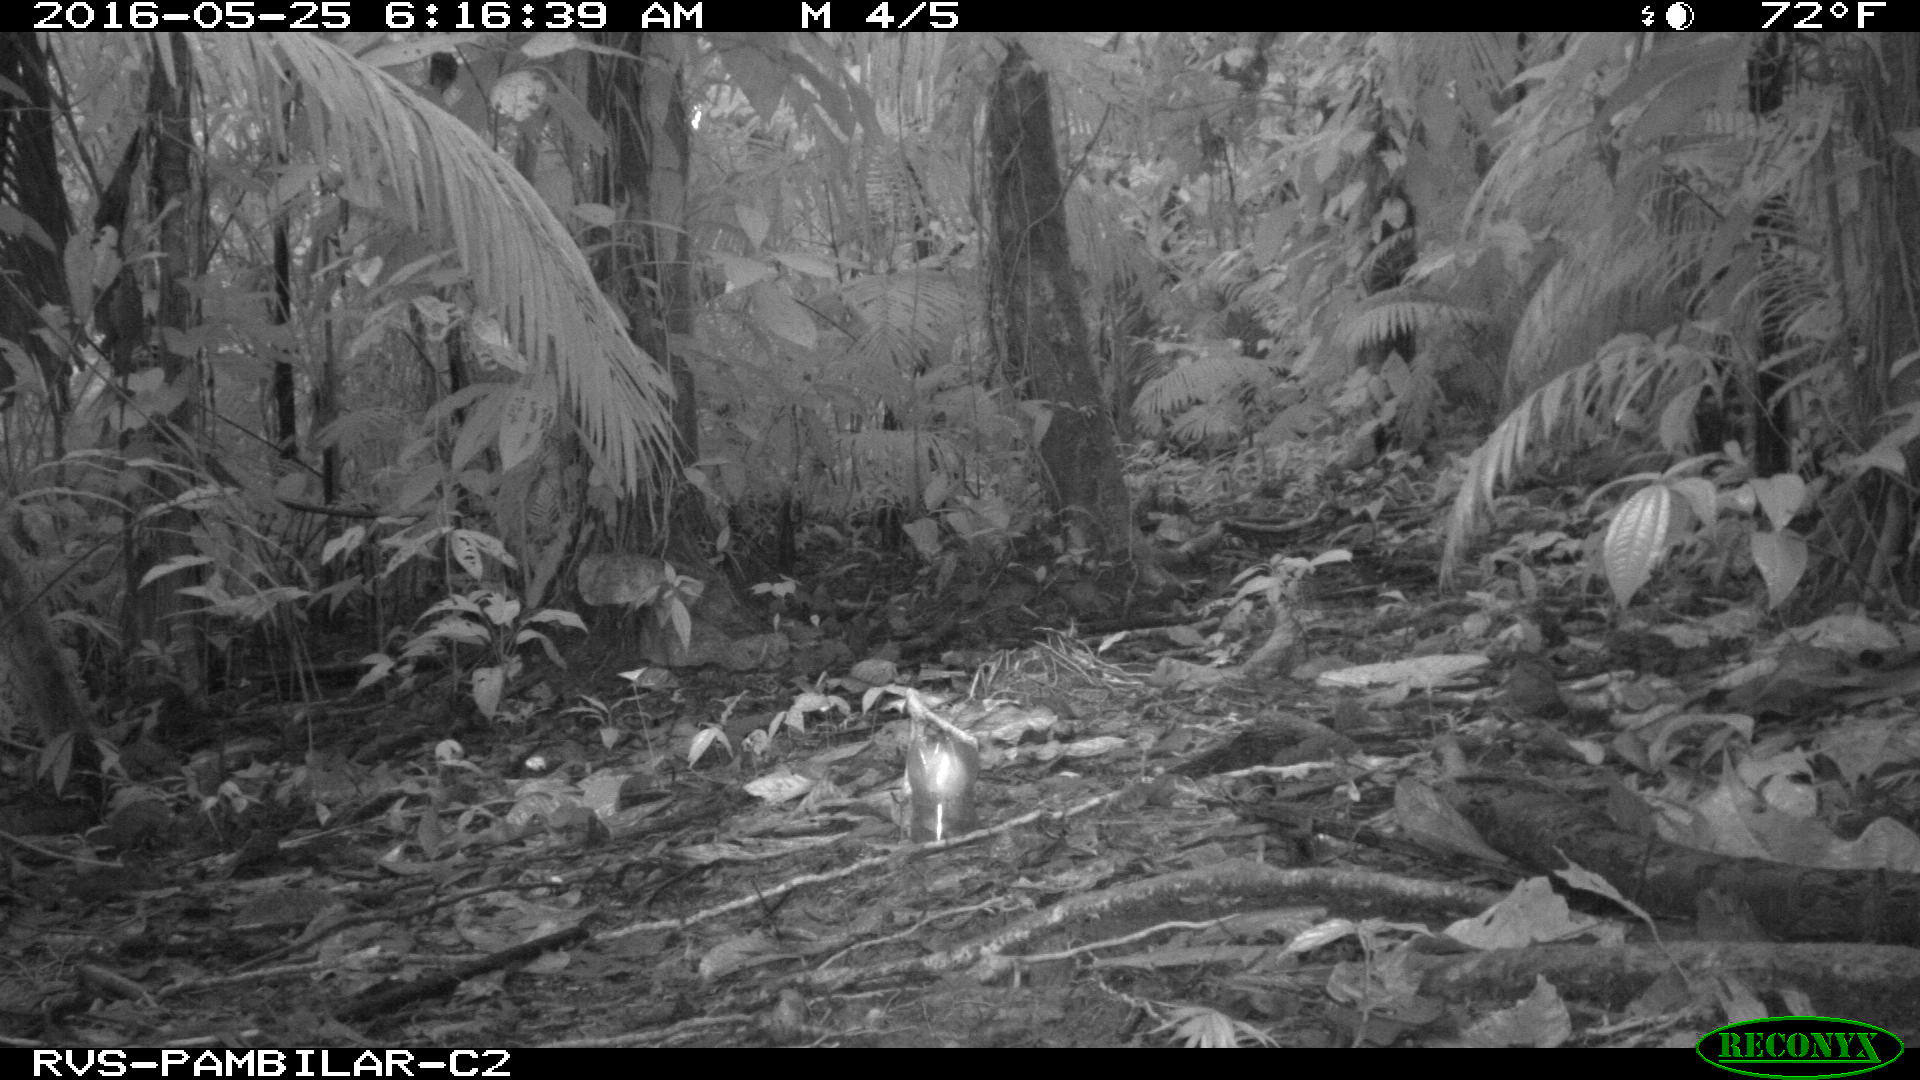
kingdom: Animalia
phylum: Chordata
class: Mammalia
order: Rodentia
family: Dasyproctidae
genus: Dasyprocta
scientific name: Dasyprocta punctata
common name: Central american agouti
